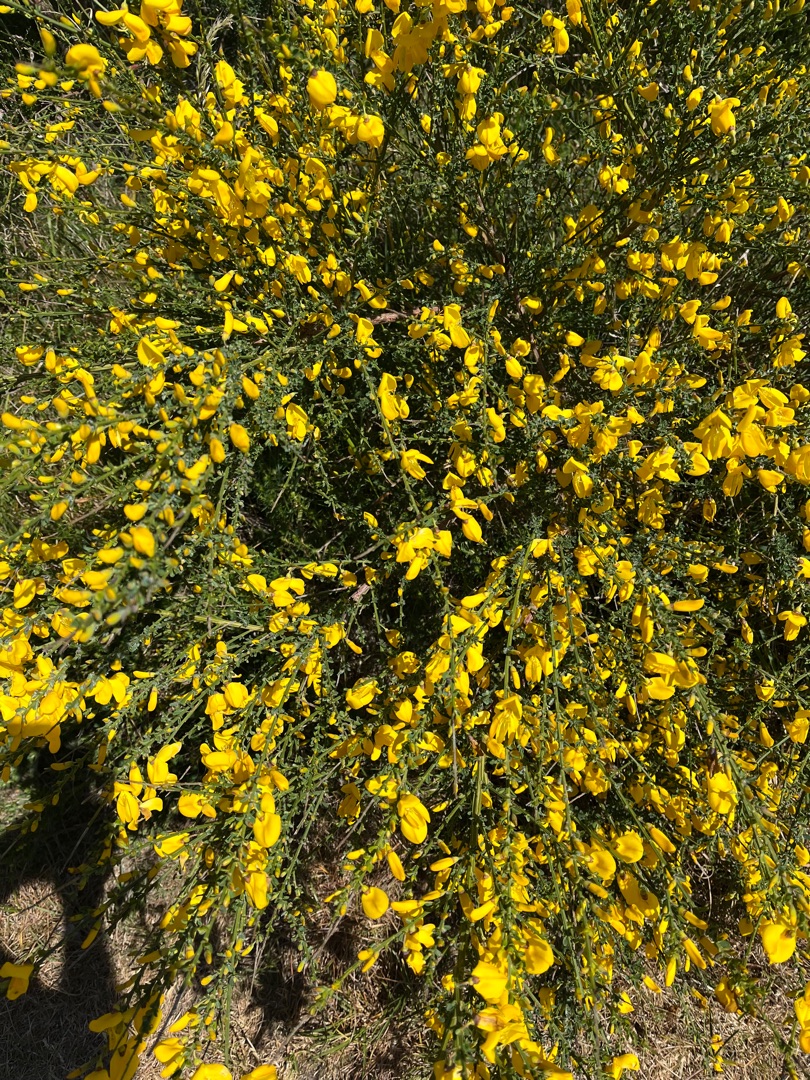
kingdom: Plantae
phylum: Tracheophyta
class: Magnoliopsida
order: Fabales
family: Fabaceae
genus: Cytisus
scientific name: Cytisus scoparius
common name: Almindelig gyvel
